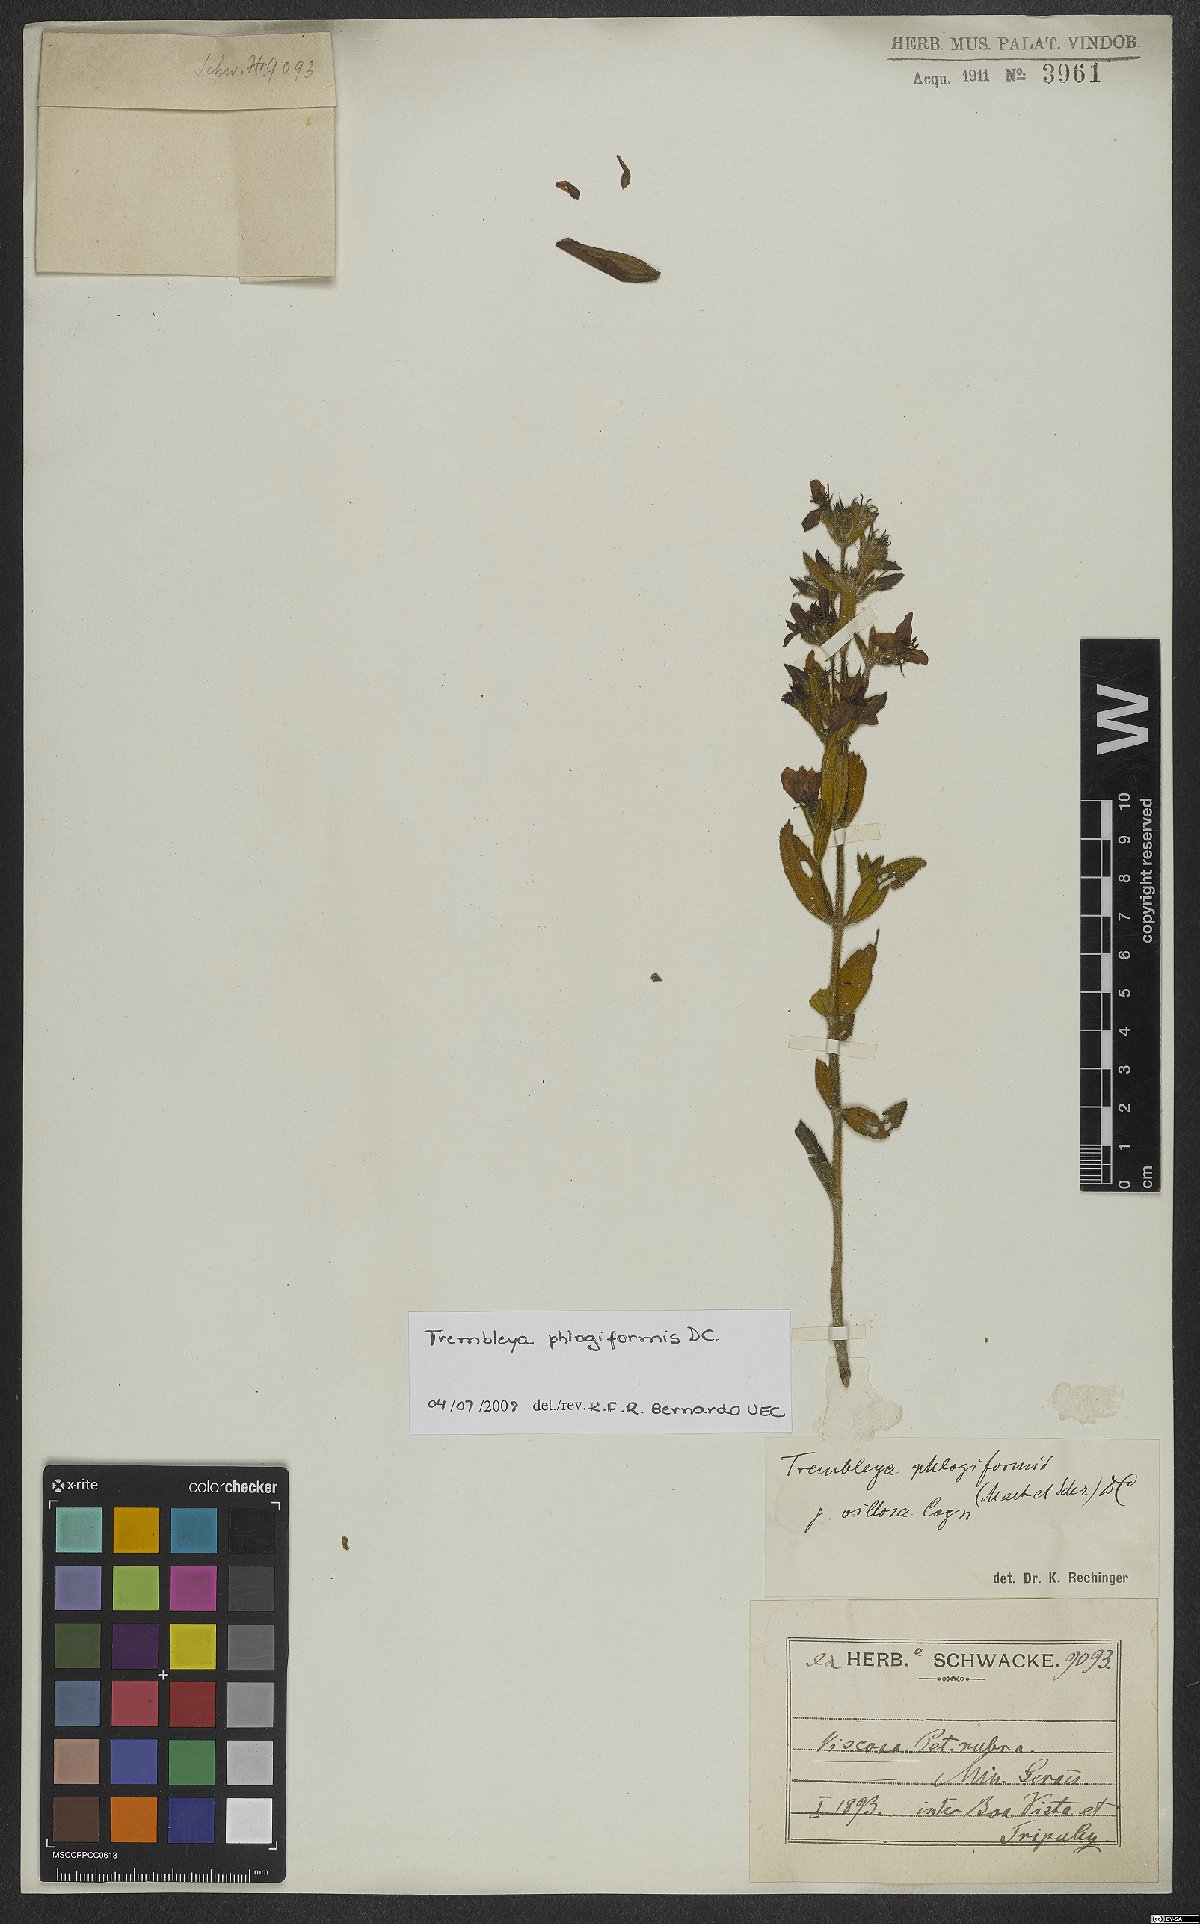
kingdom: Plantae
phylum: Tracheophyta
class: Magnoliopsida
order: Myrtales
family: Melastomataceae
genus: Microlicia
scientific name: Microlicia phlogiformis
